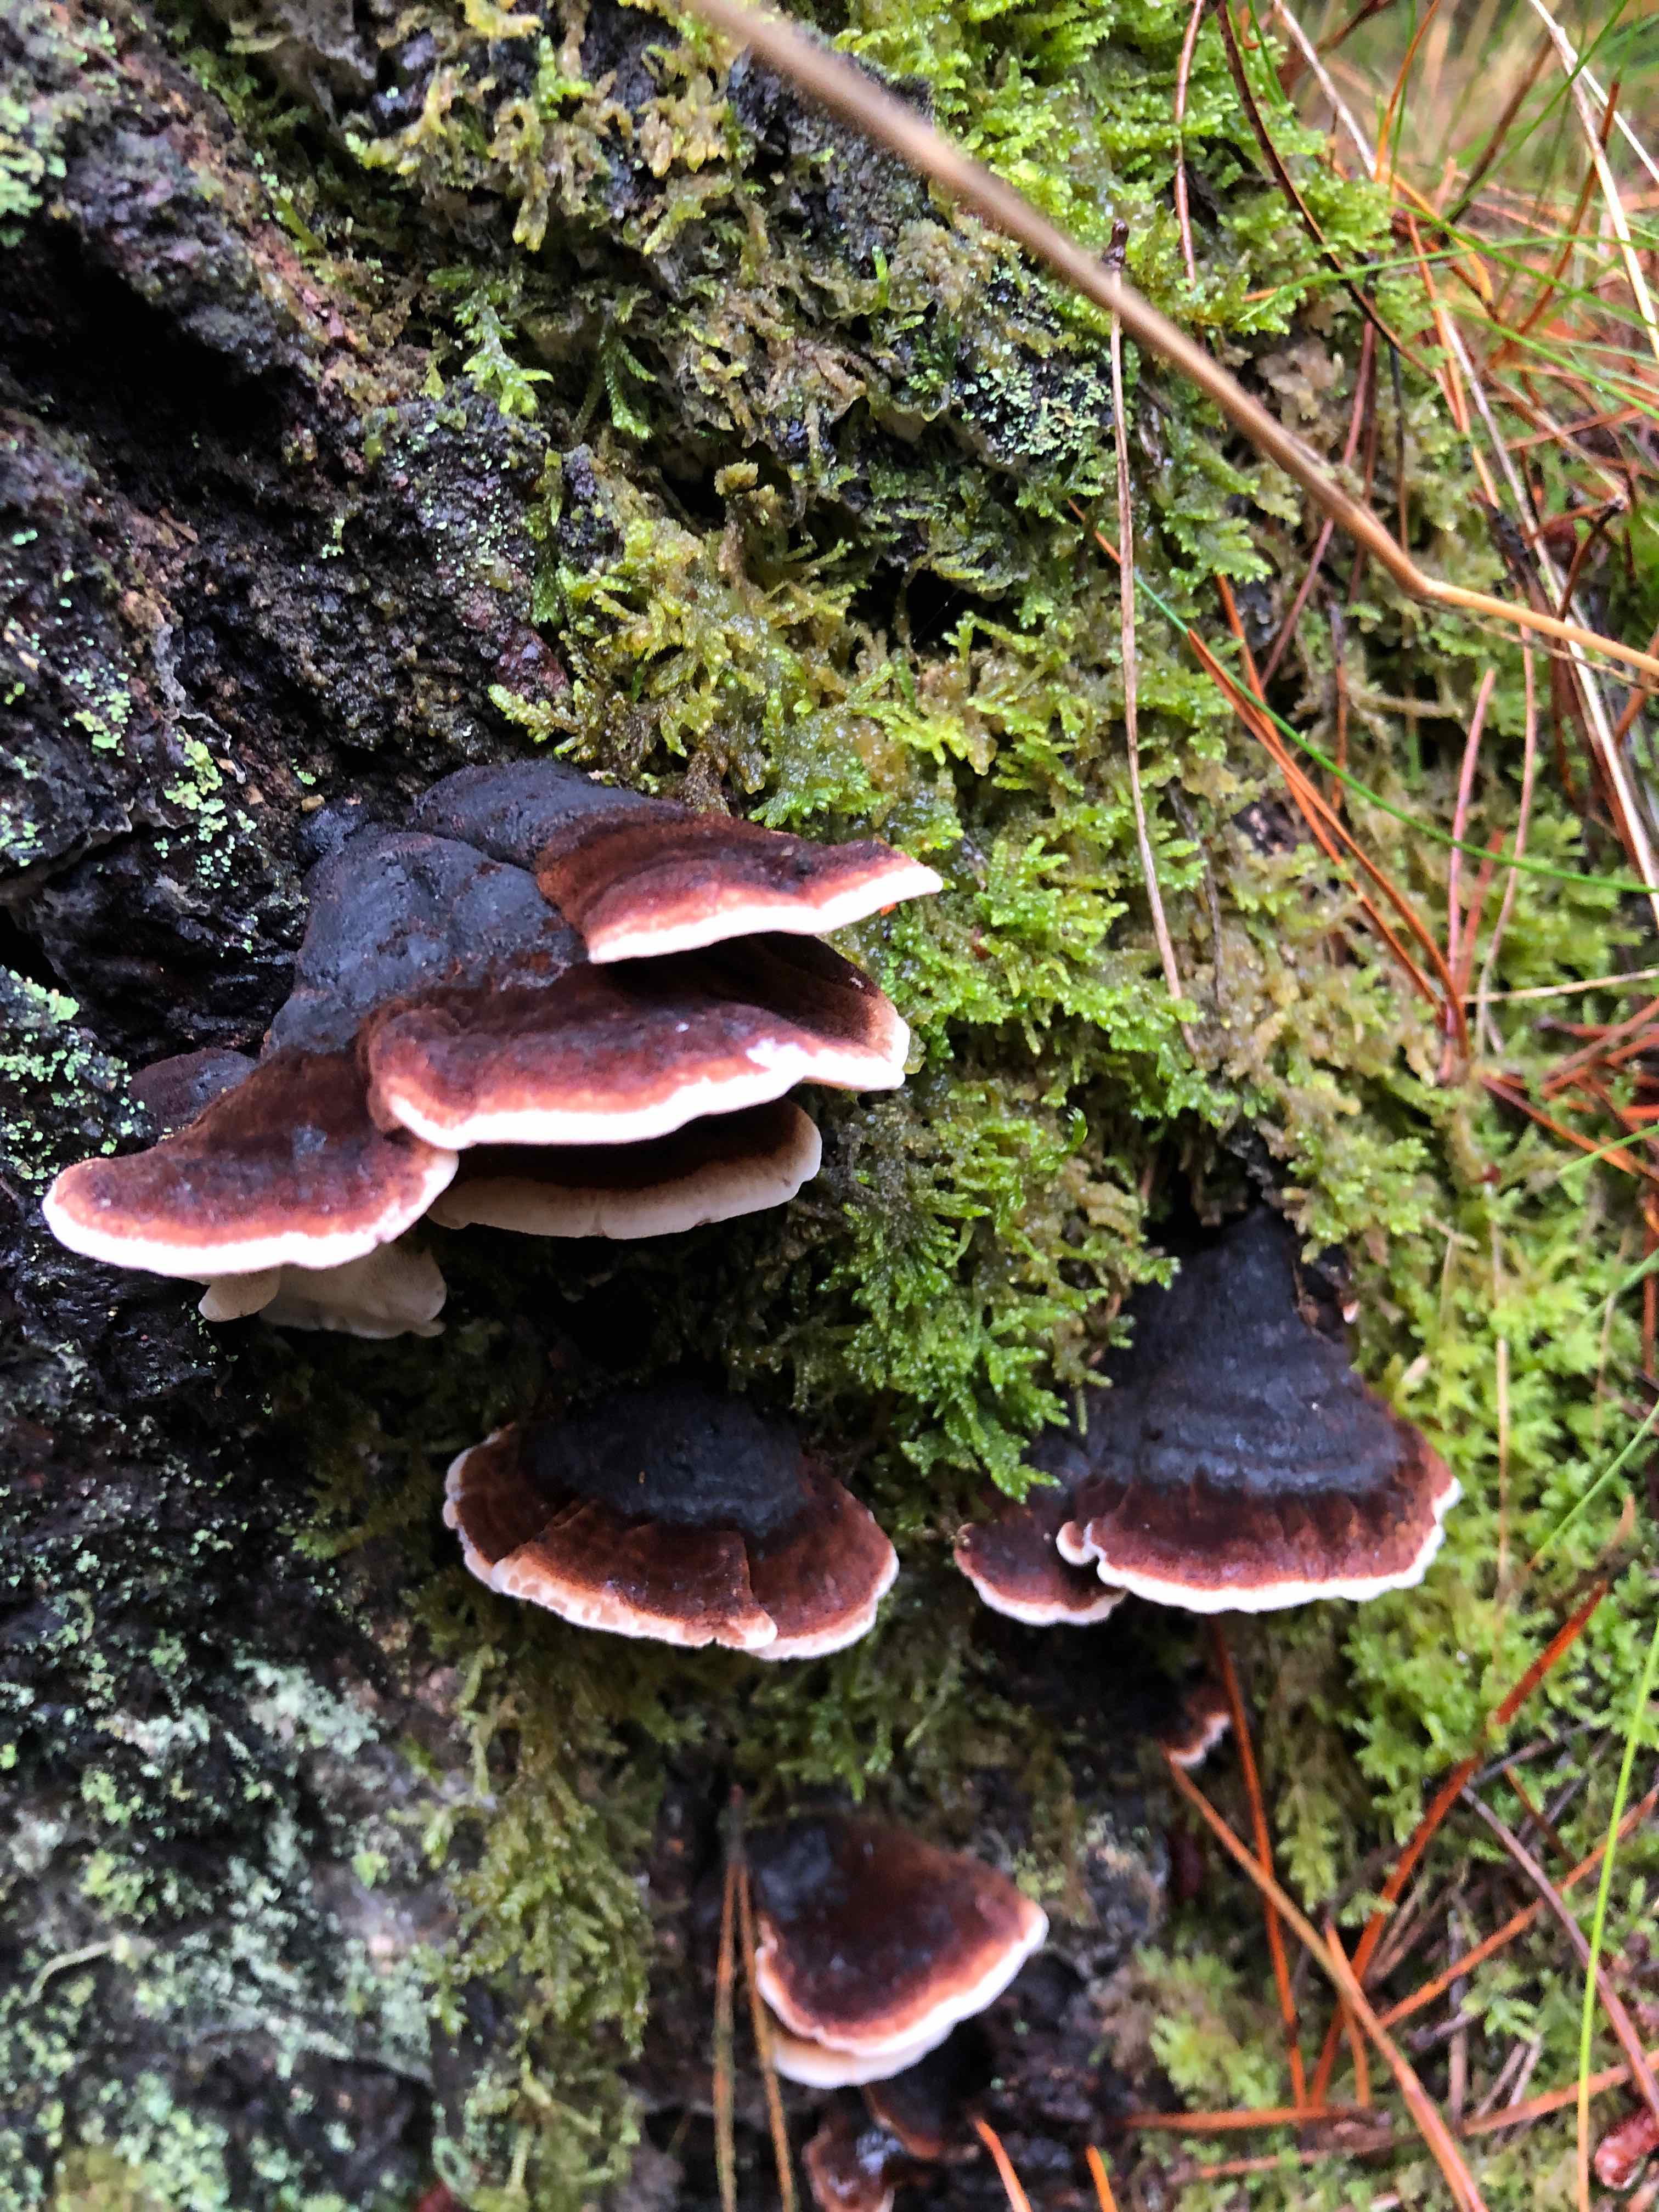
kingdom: Fungi
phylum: Basidiomycota
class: Agaricomycetes
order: Polyporales
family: Ischnodermataceae
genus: Ischnoderma
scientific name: Ischnoderma benzoinum
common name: gran-tjæreporesvamp
